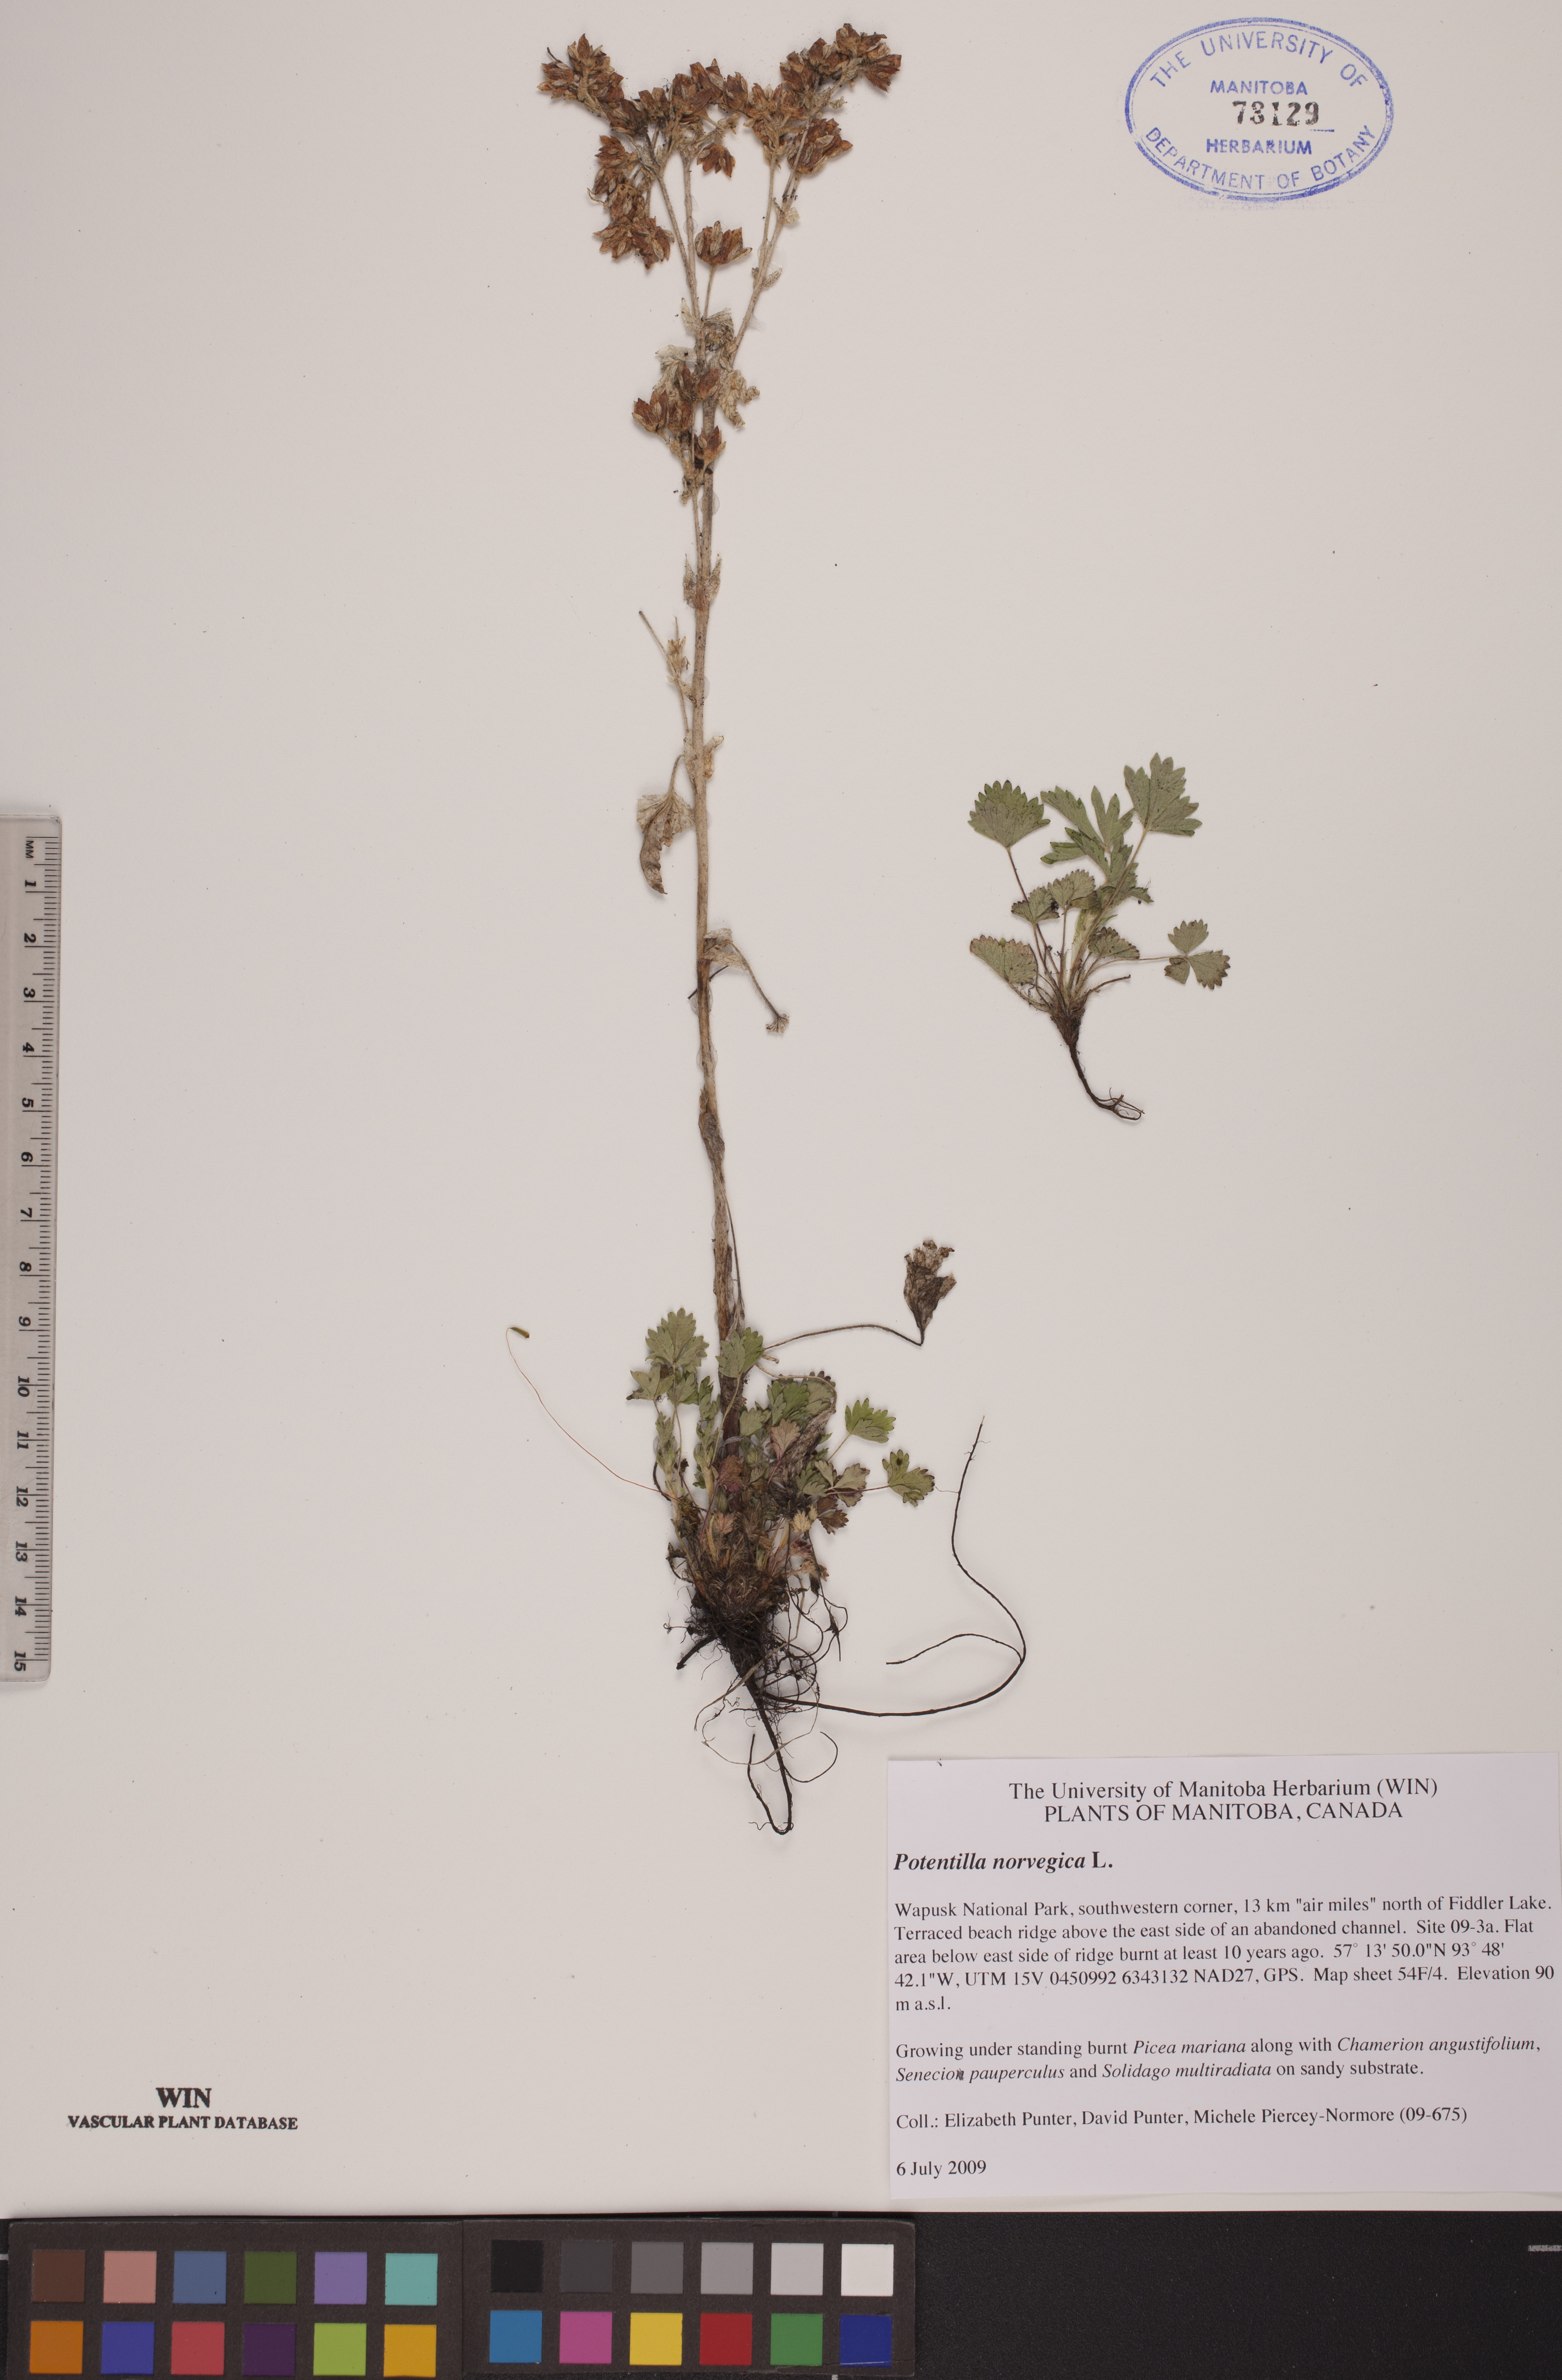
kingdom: Plantae
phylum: Tracheophyta
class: Magnoliopsida
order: Rosales
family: Rosaceae
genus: Potentilla
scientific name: Potentilla norvegica
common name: Ternate-leaved cinquefoil
